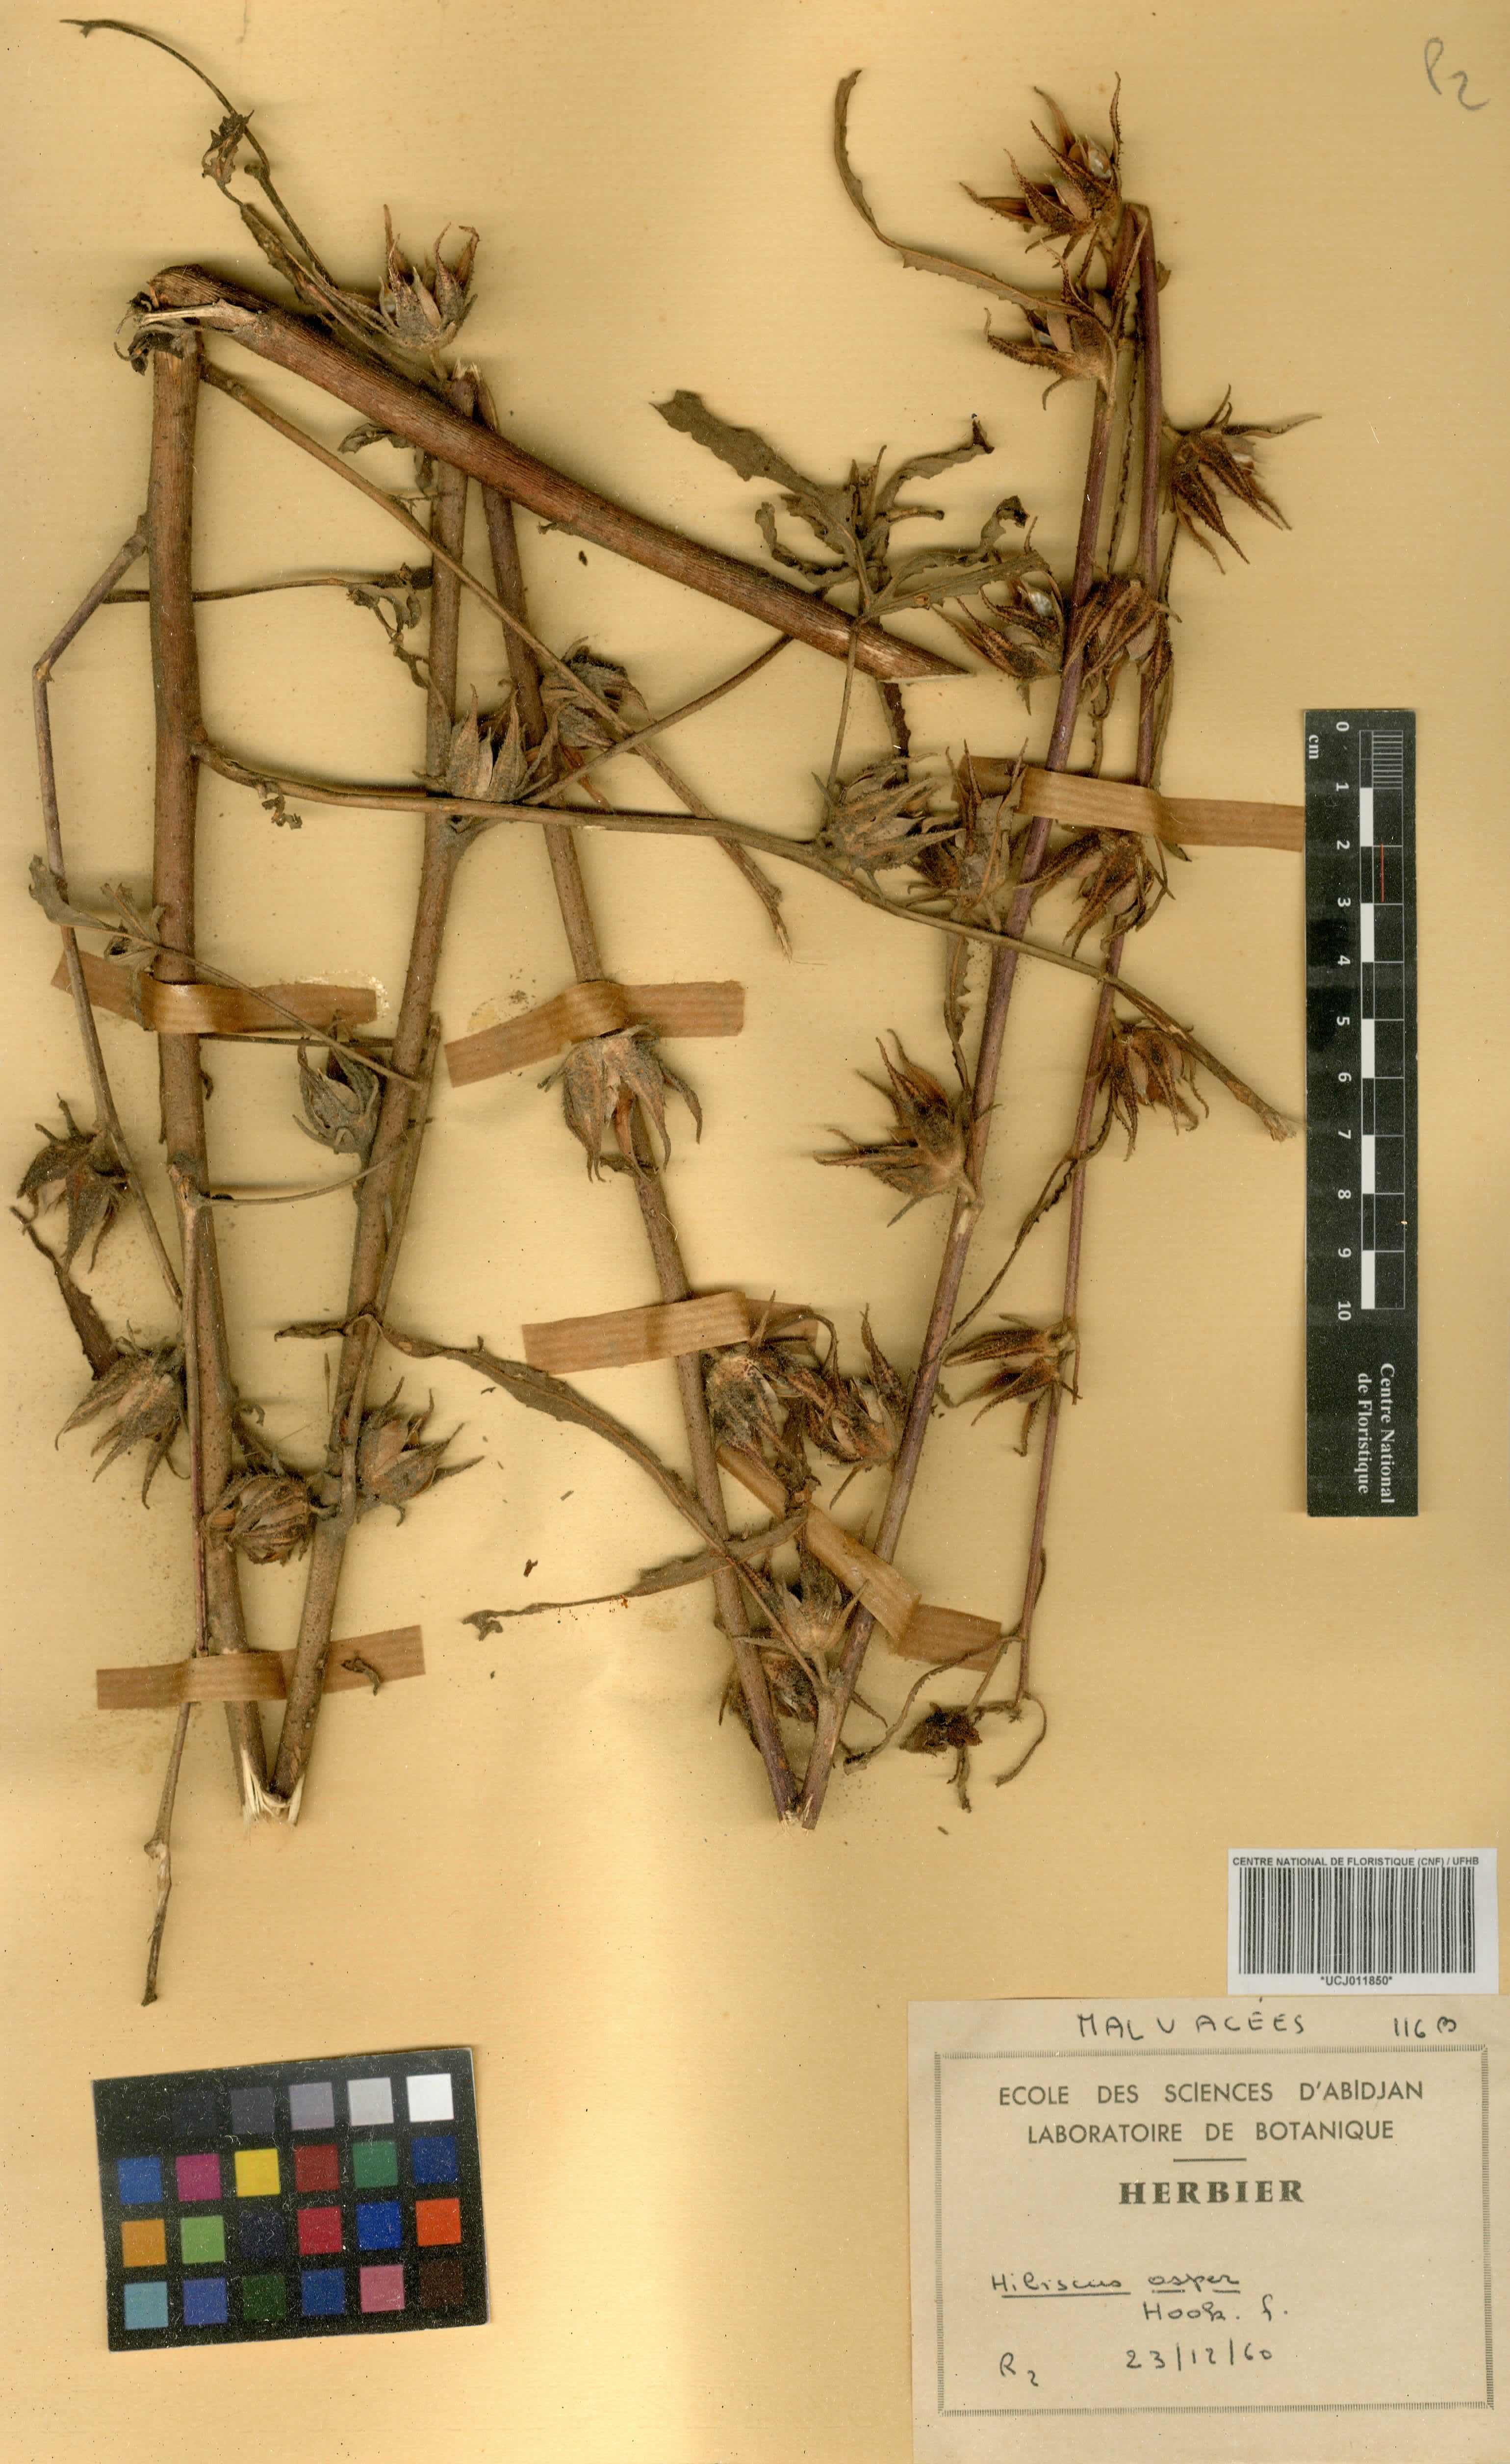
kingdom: Plantae
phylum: Tracheophyta
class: Magnoliopsida
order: Malvales
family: Malvaceae
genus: Hibiscus
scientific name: Hibiscus cannabinus
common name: Brown indianhemp
